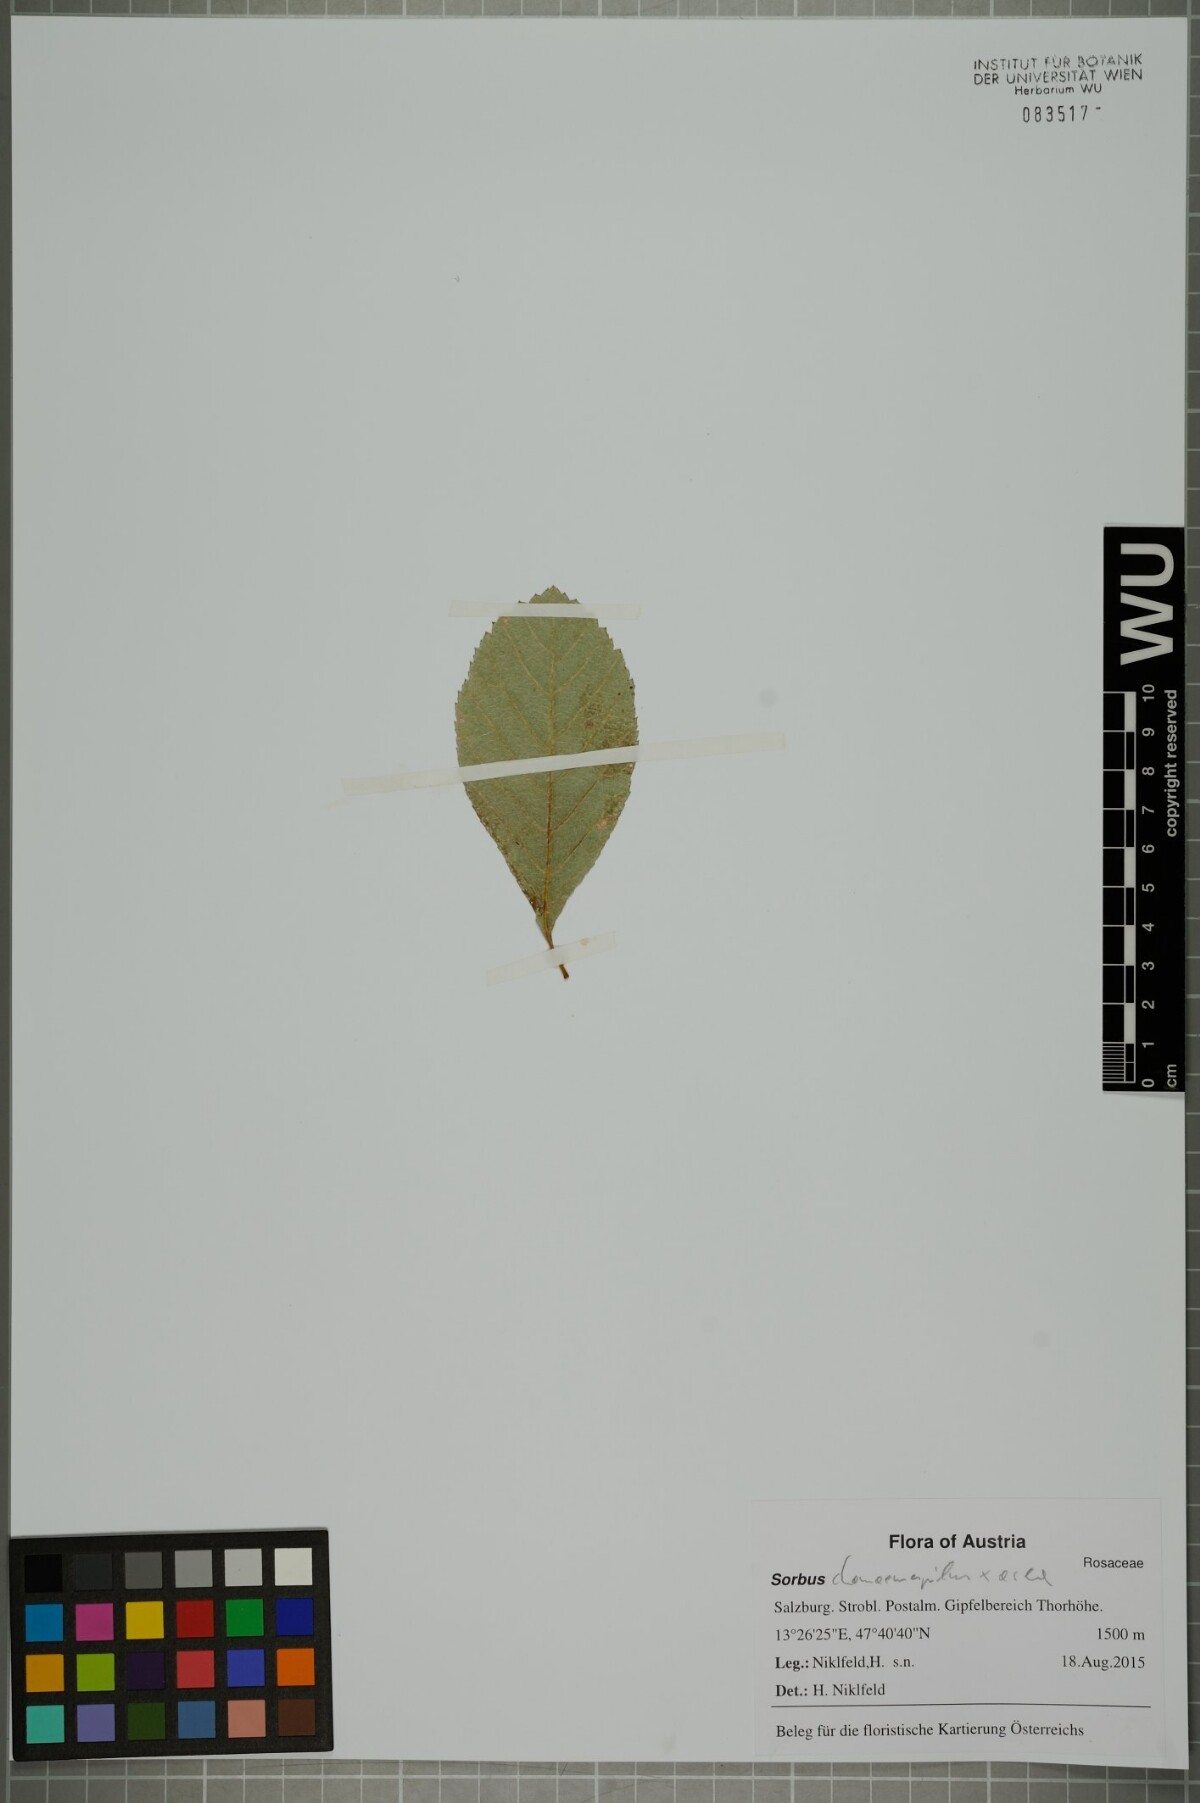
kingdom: Plantae
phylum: Tracheophyta
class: Magnoliopsida
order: Rosales
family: Rosaceae
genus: Majovskya
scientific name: Majovskya sudetica
